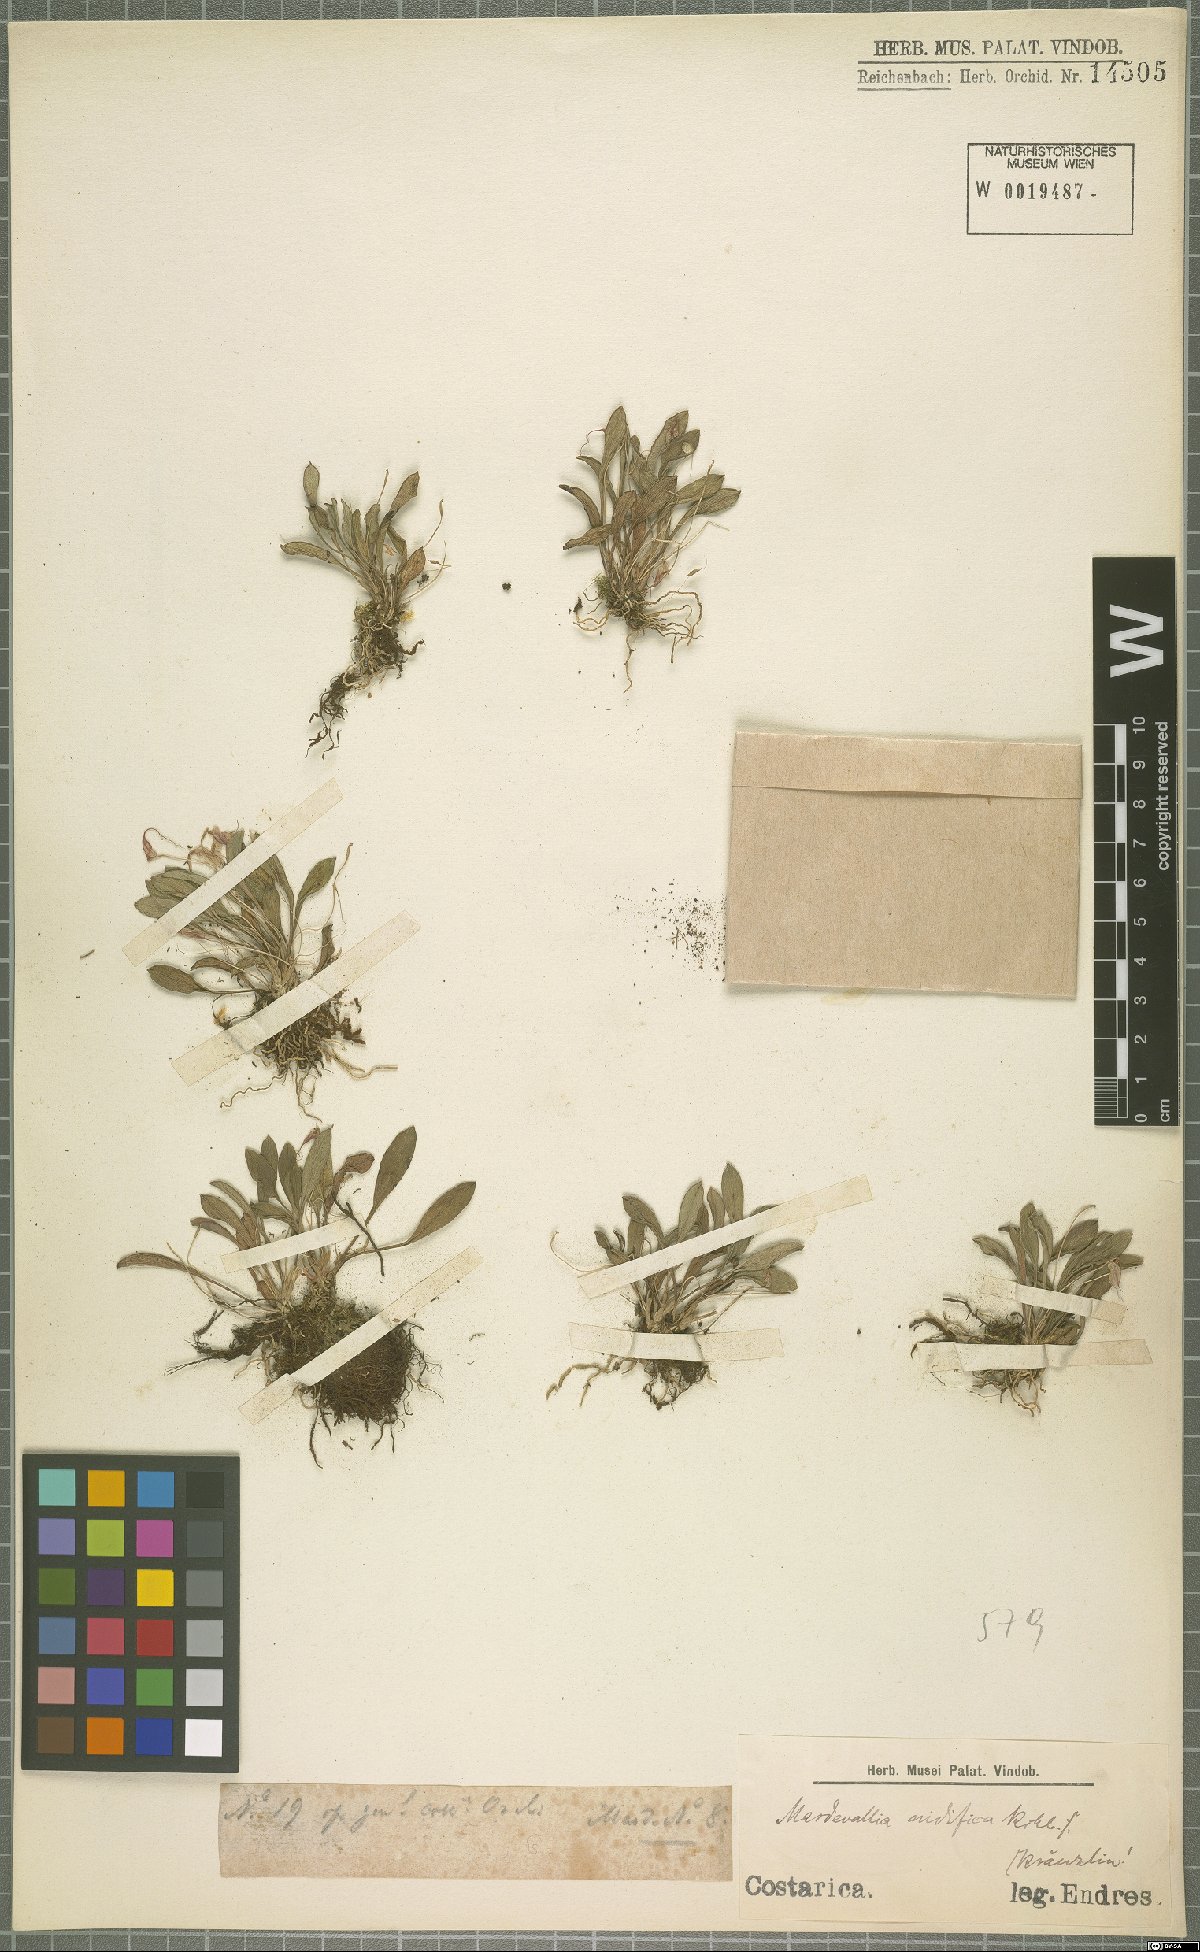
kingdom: Plantae
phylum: Tracheophyta
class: Liliopsida
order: Asparagales
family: Orchidaceae
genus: Masdevallia
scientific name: Masdevallia nidifica
